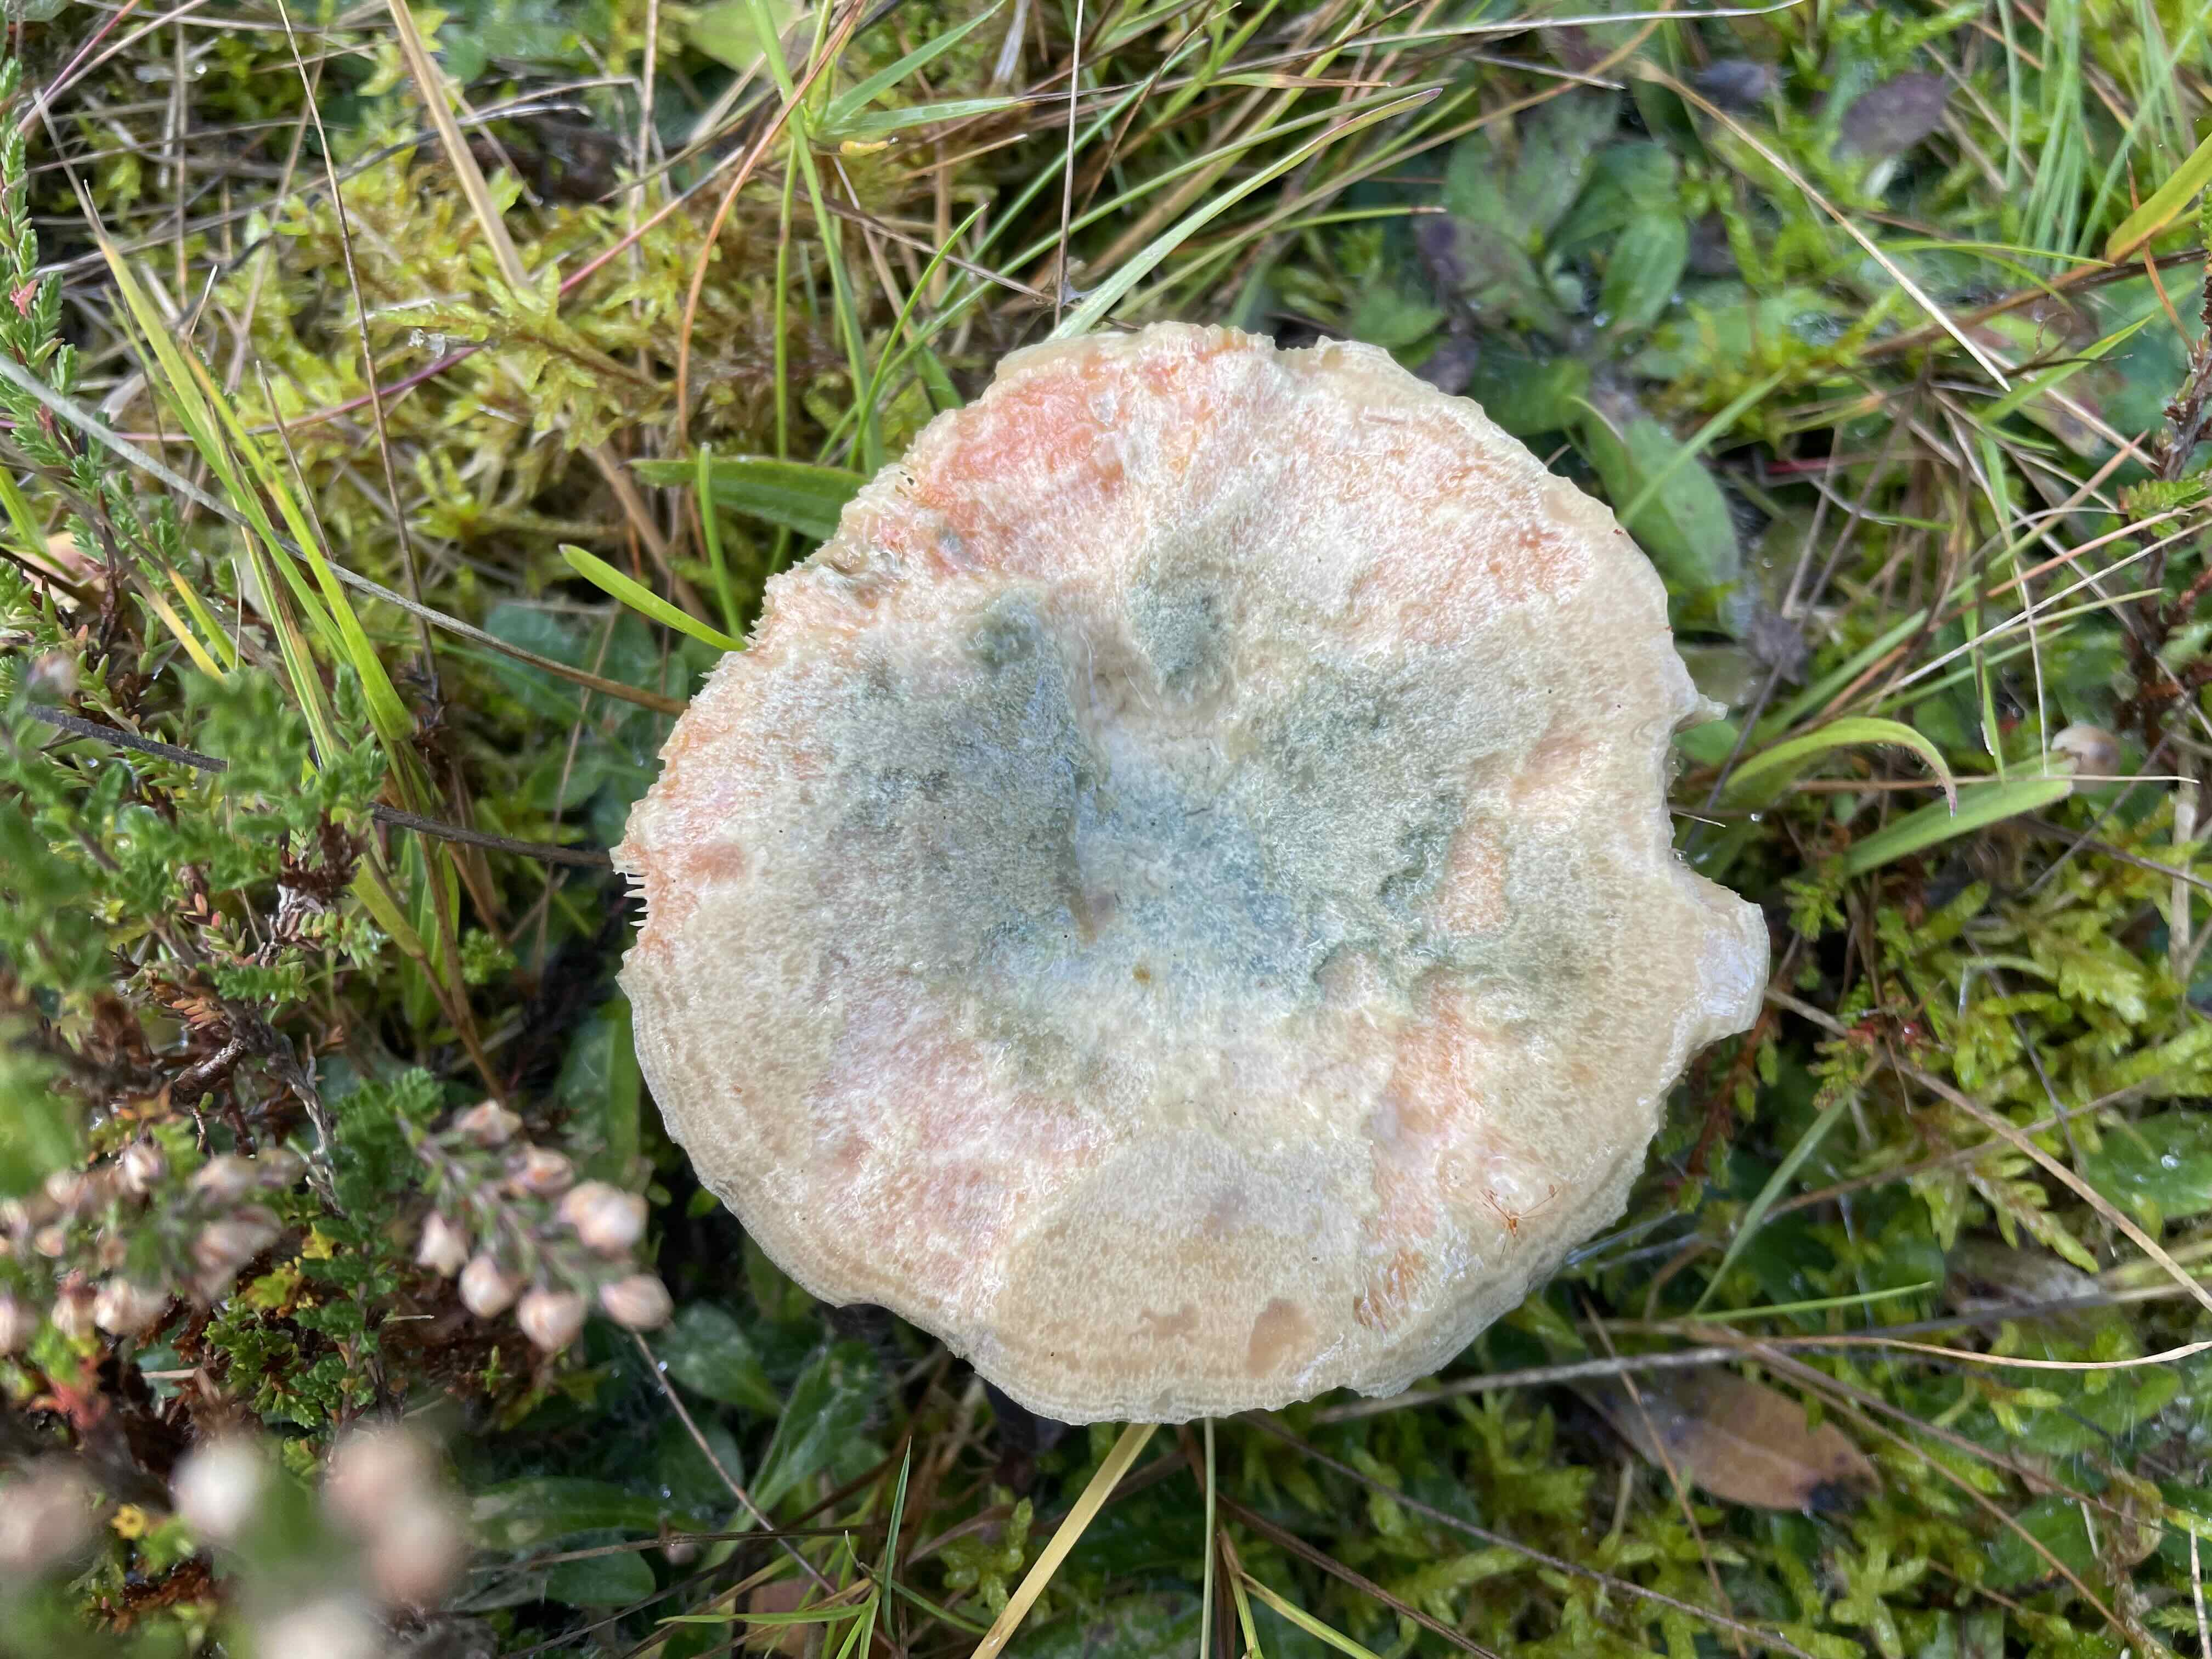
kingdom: Fungi
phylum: Basidiomycota
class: Agaricomycetes
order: Russulales
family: Russulaceae
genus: Lactarius
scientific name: Lactarius quieticolor
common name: tvefarvet mælkehat
